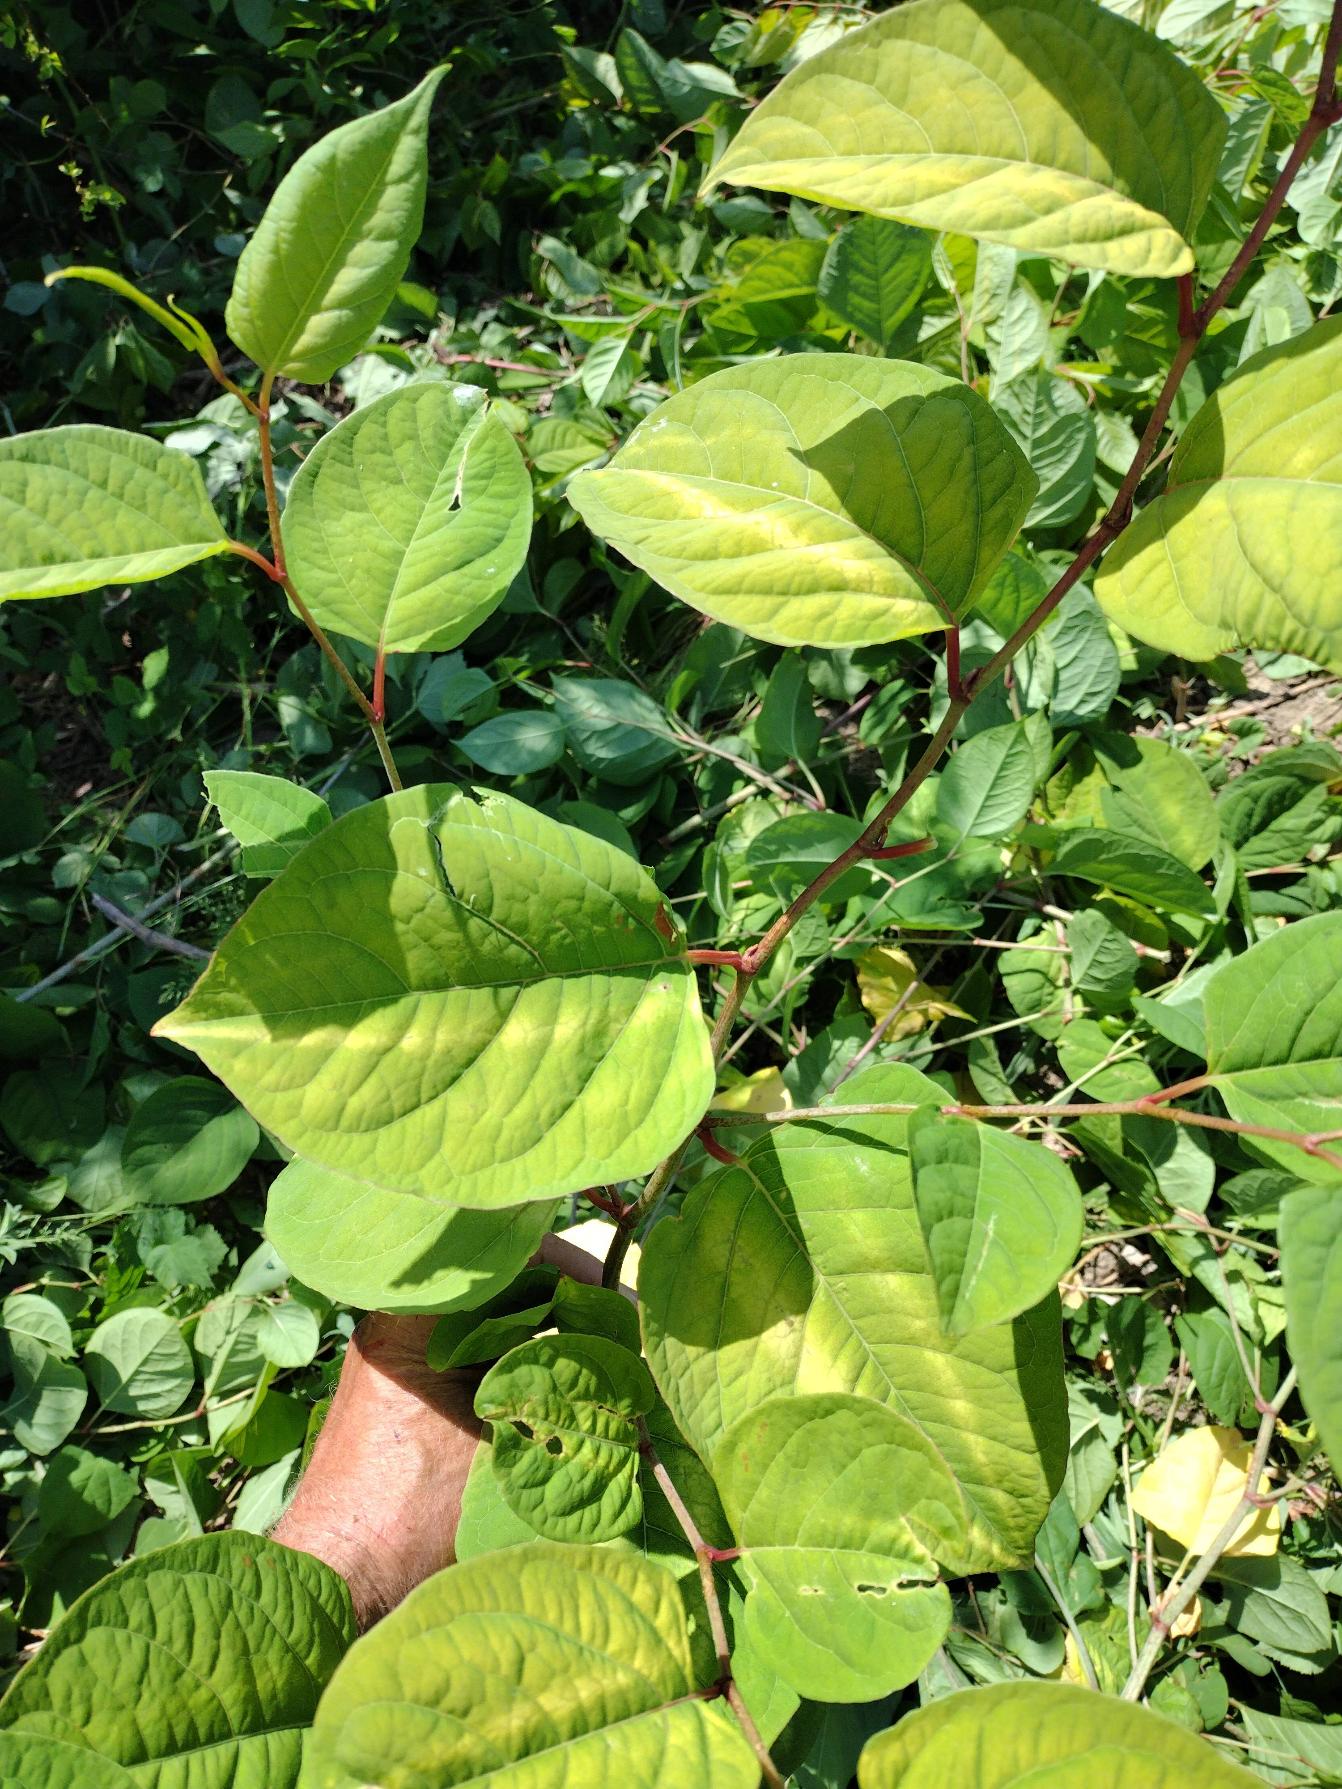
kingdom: Plantae
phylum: Tracheophyta
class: Magnoliopsida
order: Caryophyllales
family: Polygonaceae
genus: Reynoutria
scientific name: Reynoutria japonica
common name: Japan-pileurt
